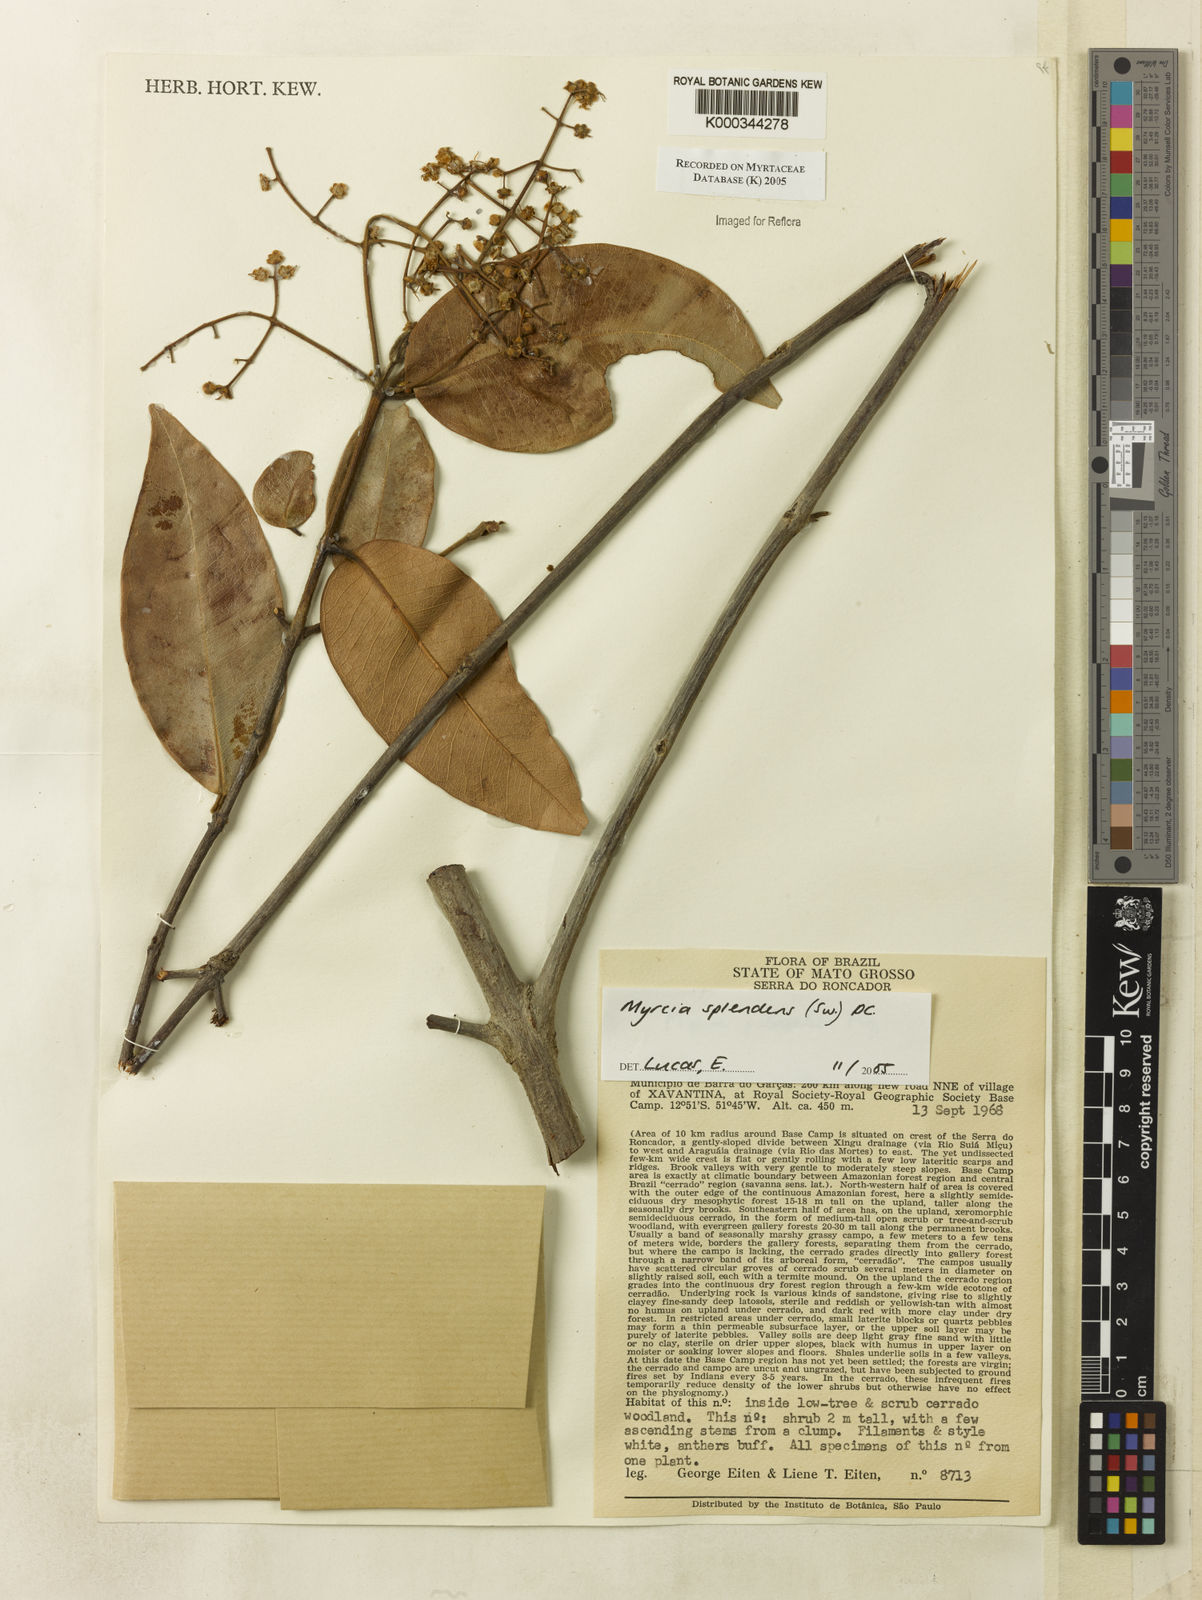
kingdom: Plantae
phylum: Tracheophyta
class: Magnoliopsida
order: Myrtales
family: Myrtaceae
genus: Myrcia
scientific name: Myrcia splendens
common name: Surinam cherry
